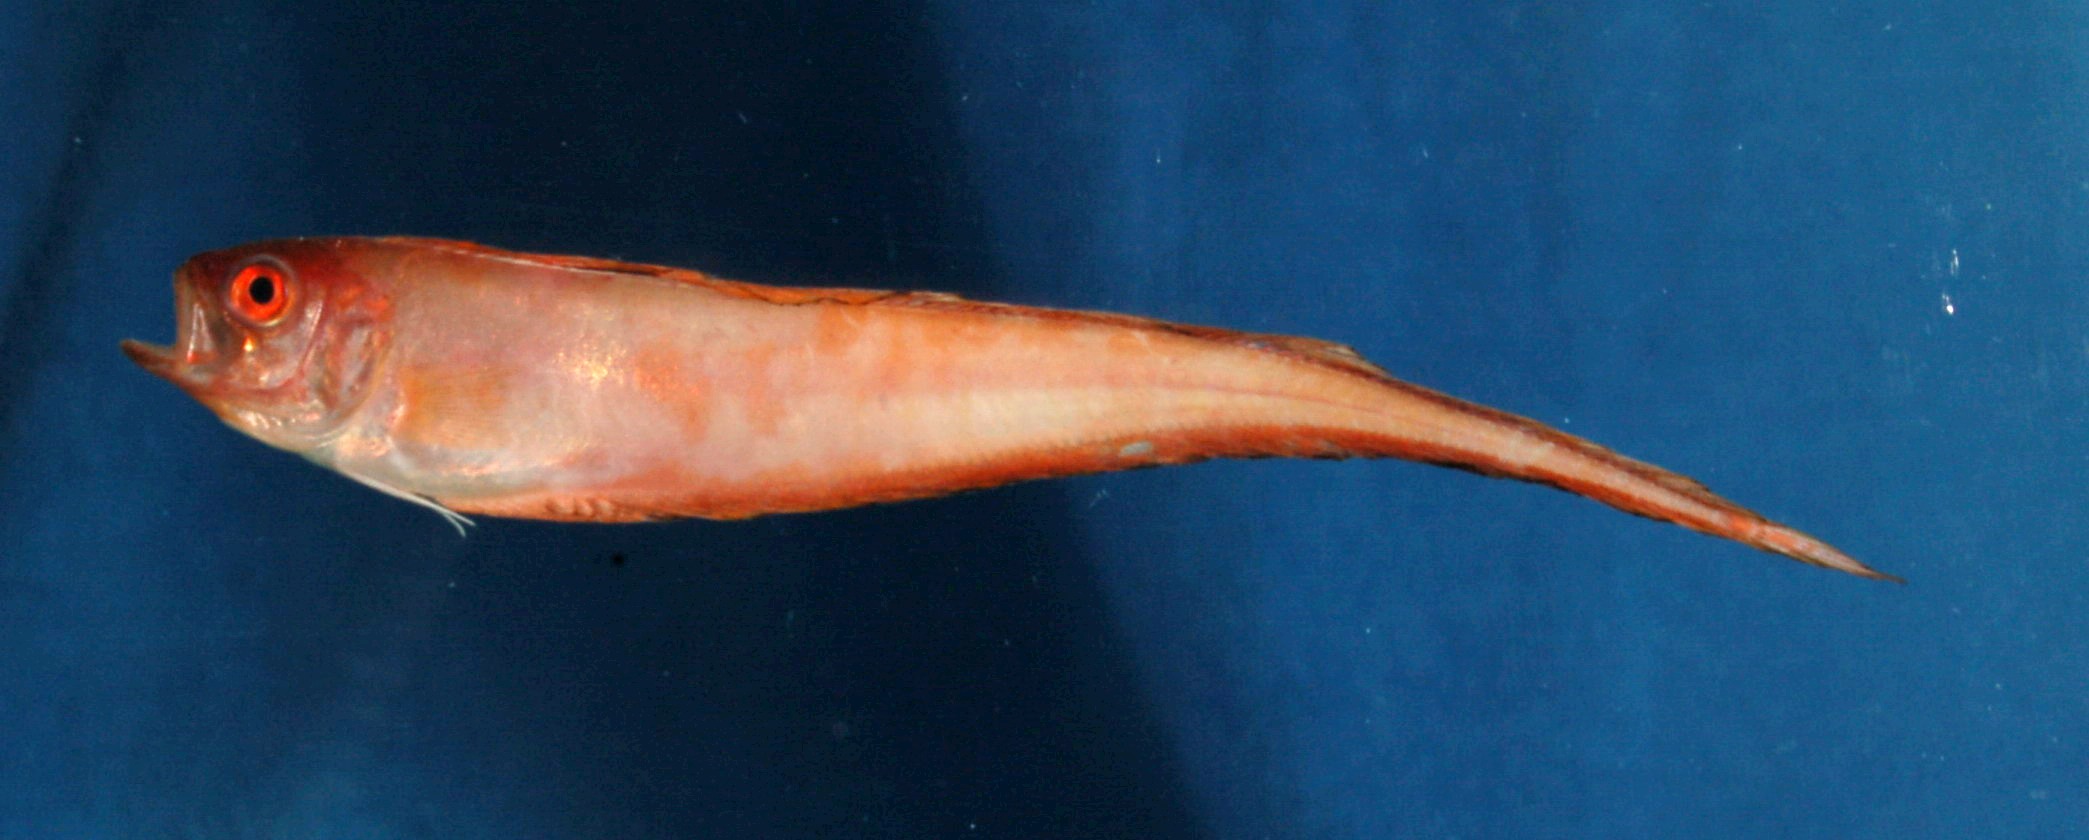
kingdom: Animalia
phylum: Chordata
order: Perciformes
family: Cepolidae
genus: Acanthocepola
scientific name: Acanthocepola indica
